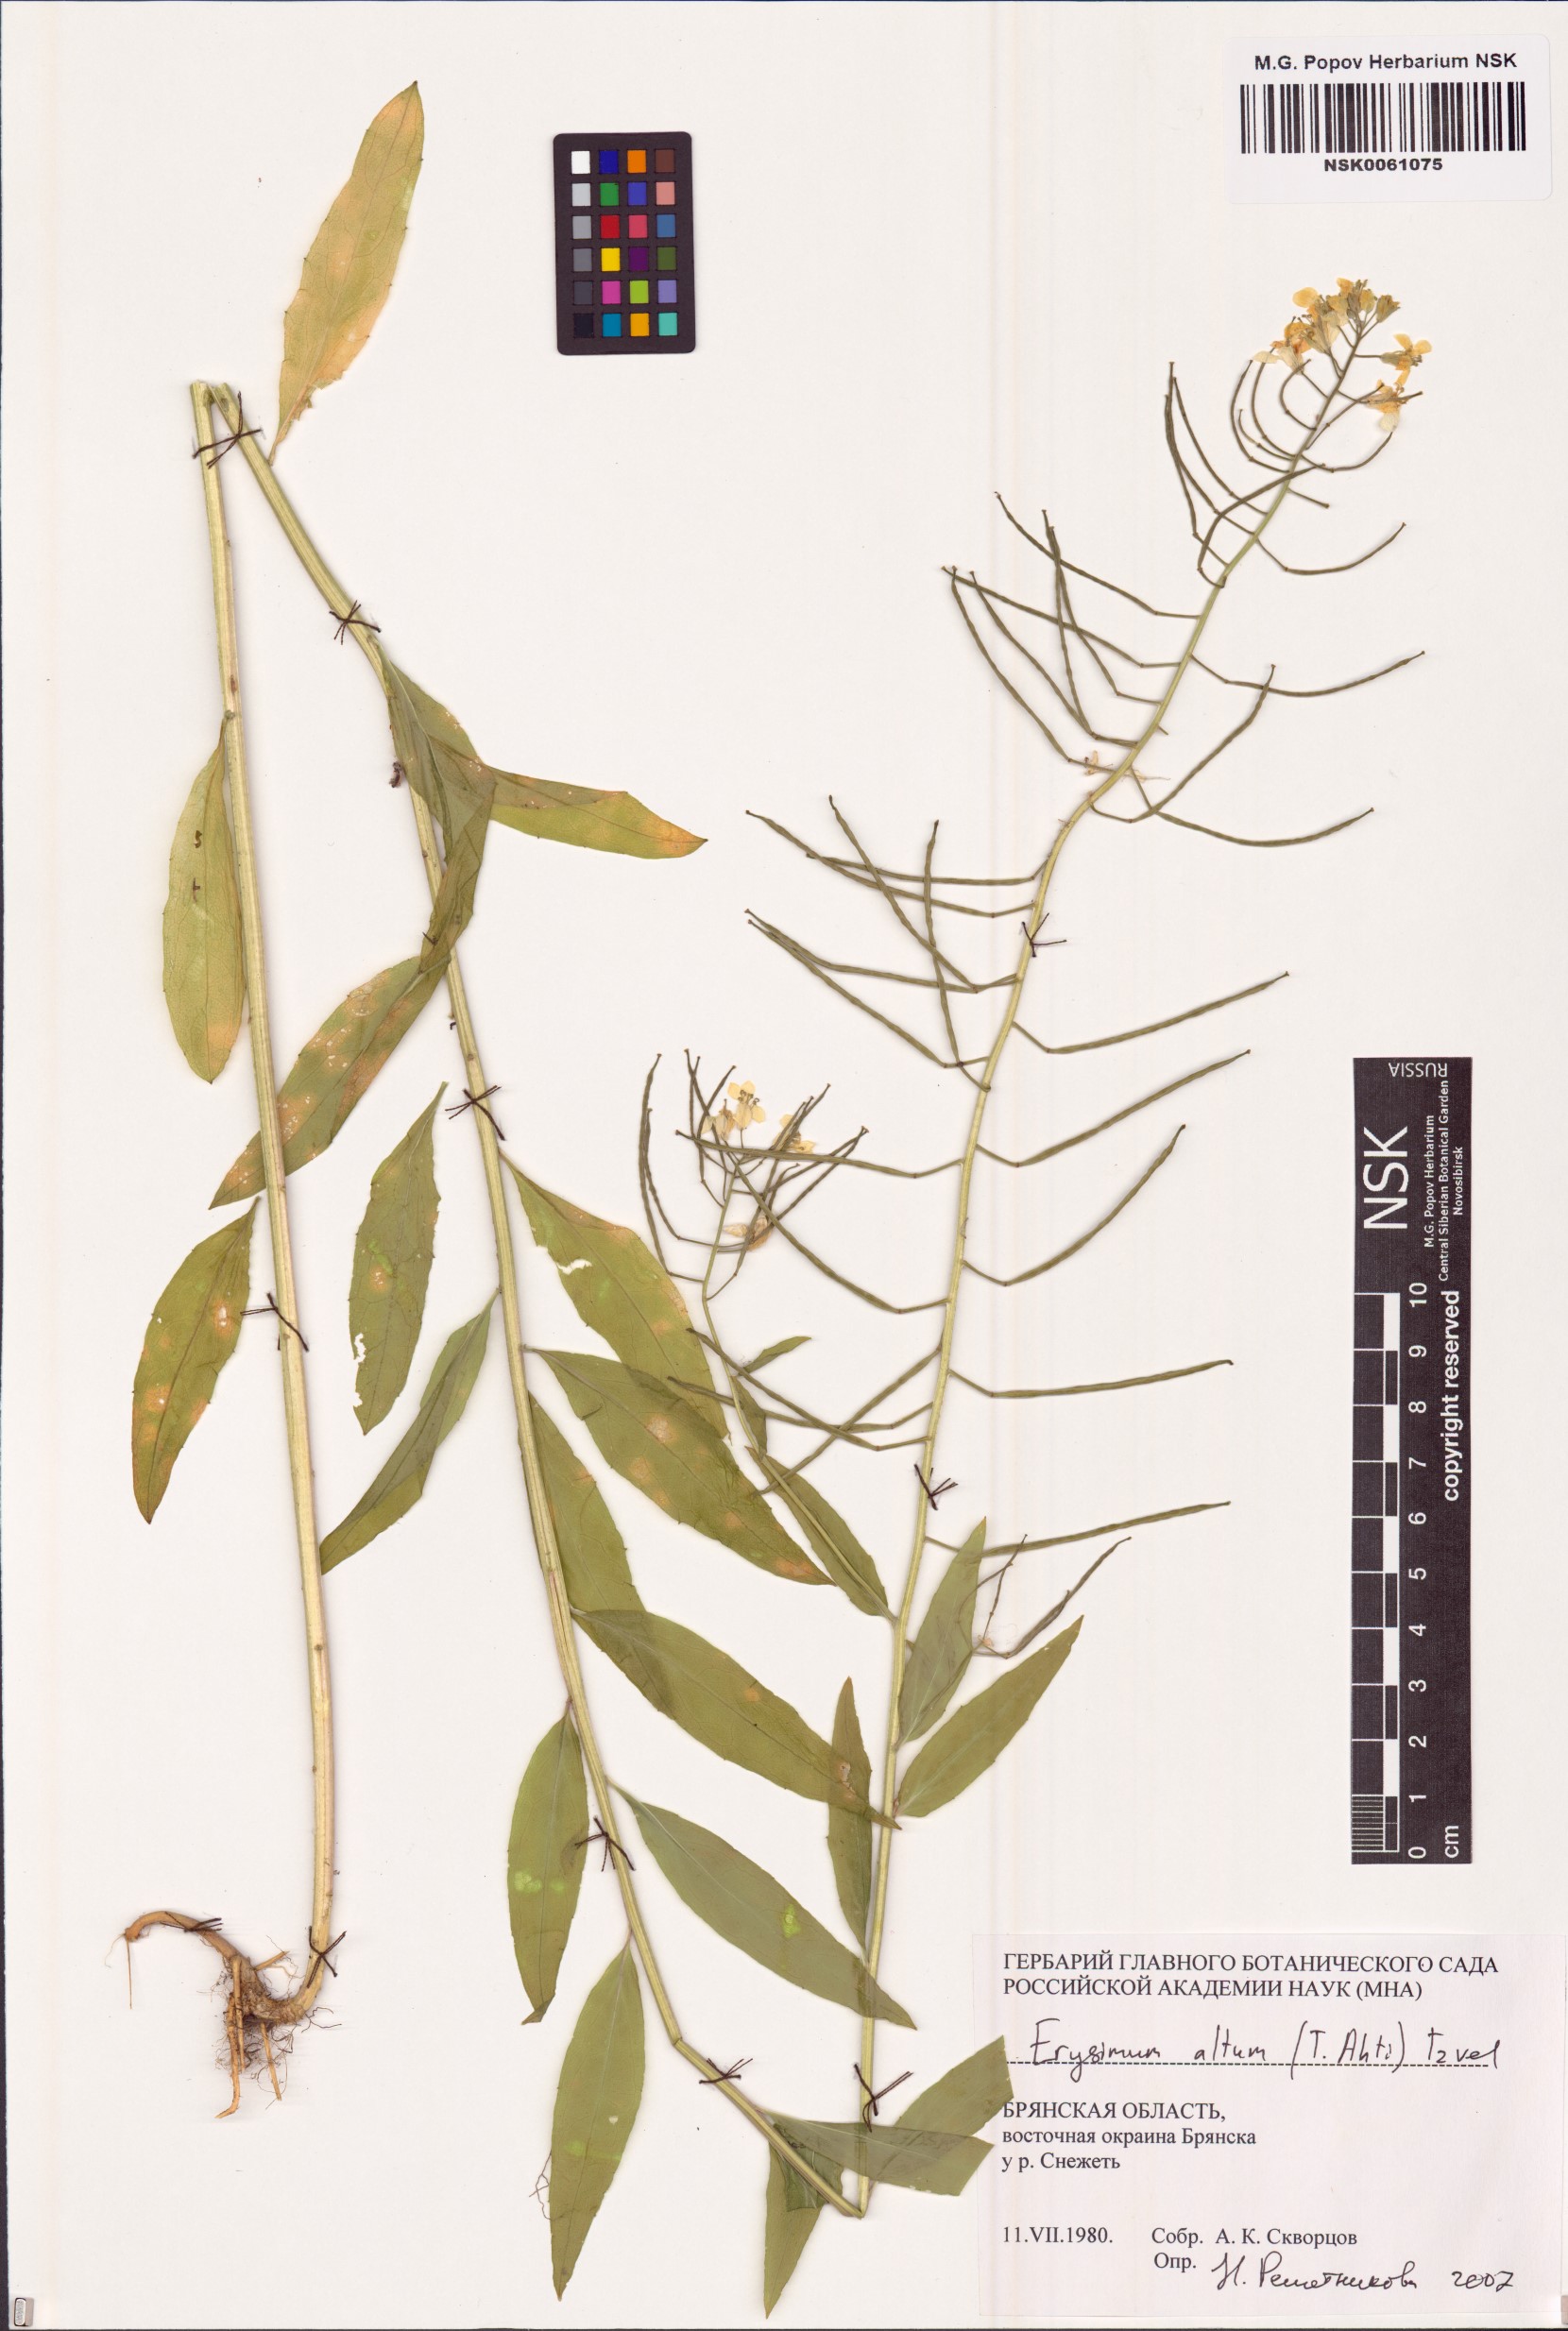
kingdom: Plantae
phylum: Tracheophyta
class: Magnoliopsida
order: Brassicales
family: Brassicaceae
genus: Erysimum
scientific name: Erysimum cheiranthoides
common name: Treacle mustard
